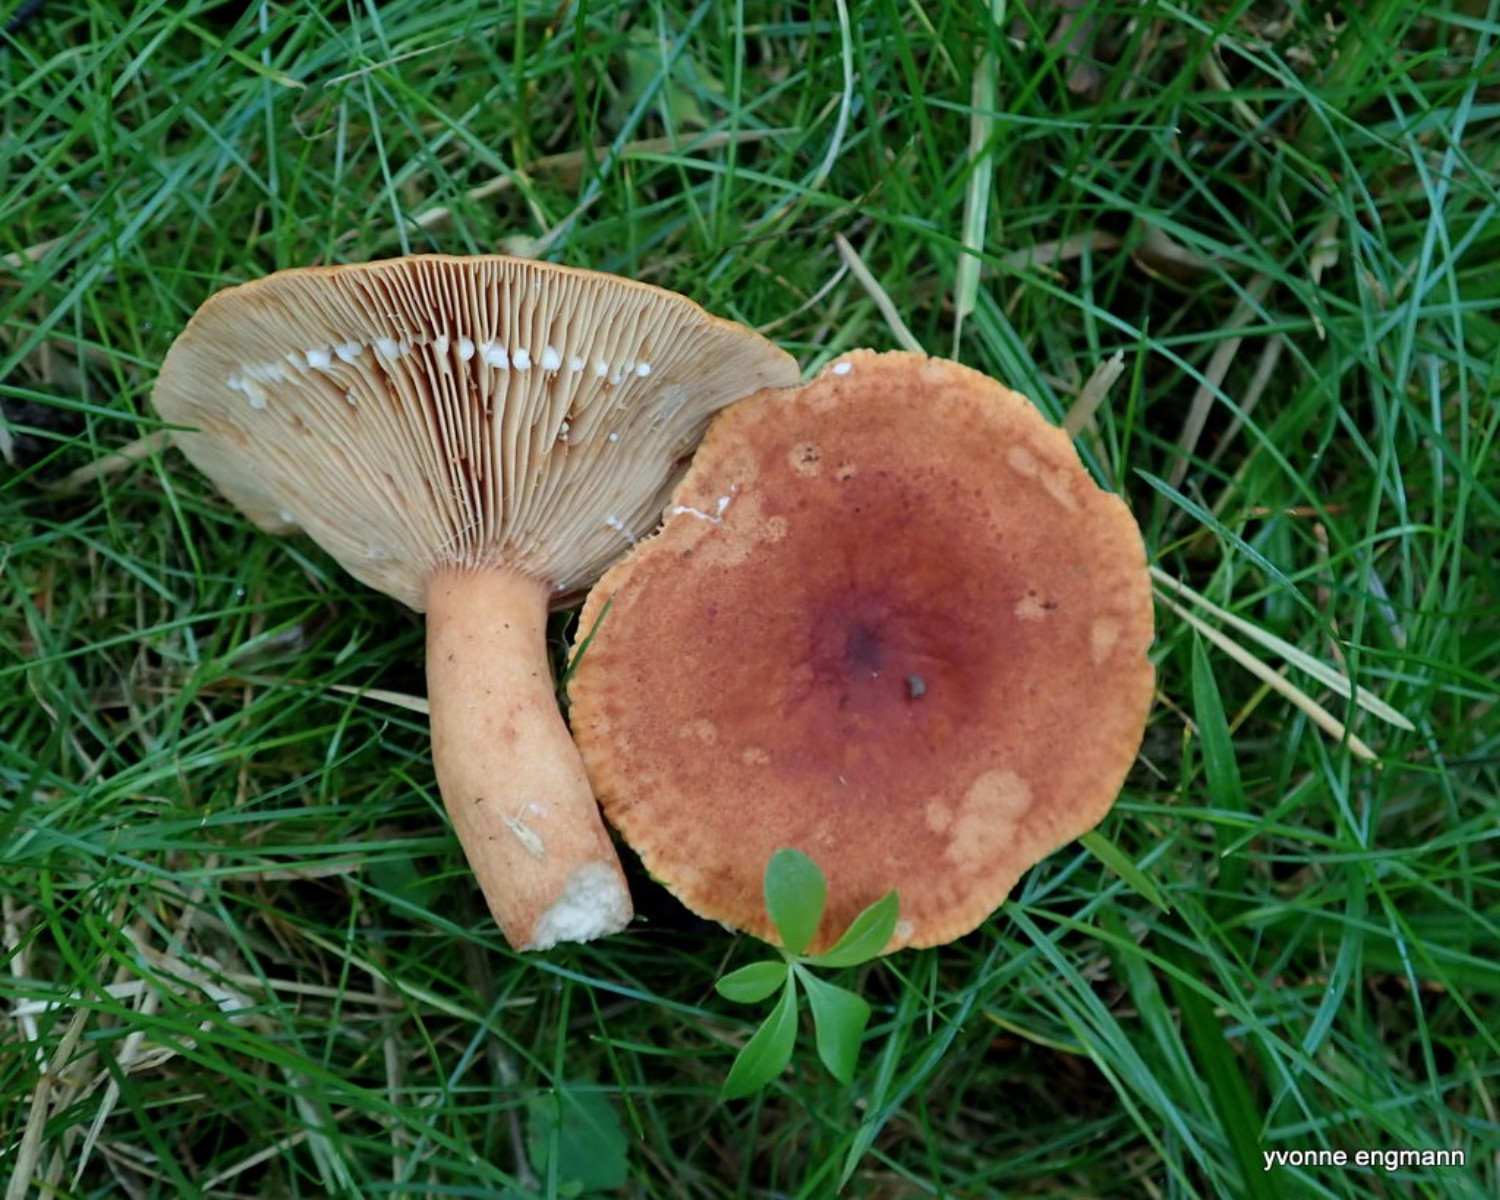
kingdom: Fungi
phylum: Basidiomycota
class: Agaricomycetes
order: Russulales
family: Russulaceae
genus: Lactarius
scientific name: Lactarius fulvissimus
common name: ræve-mælkehat
